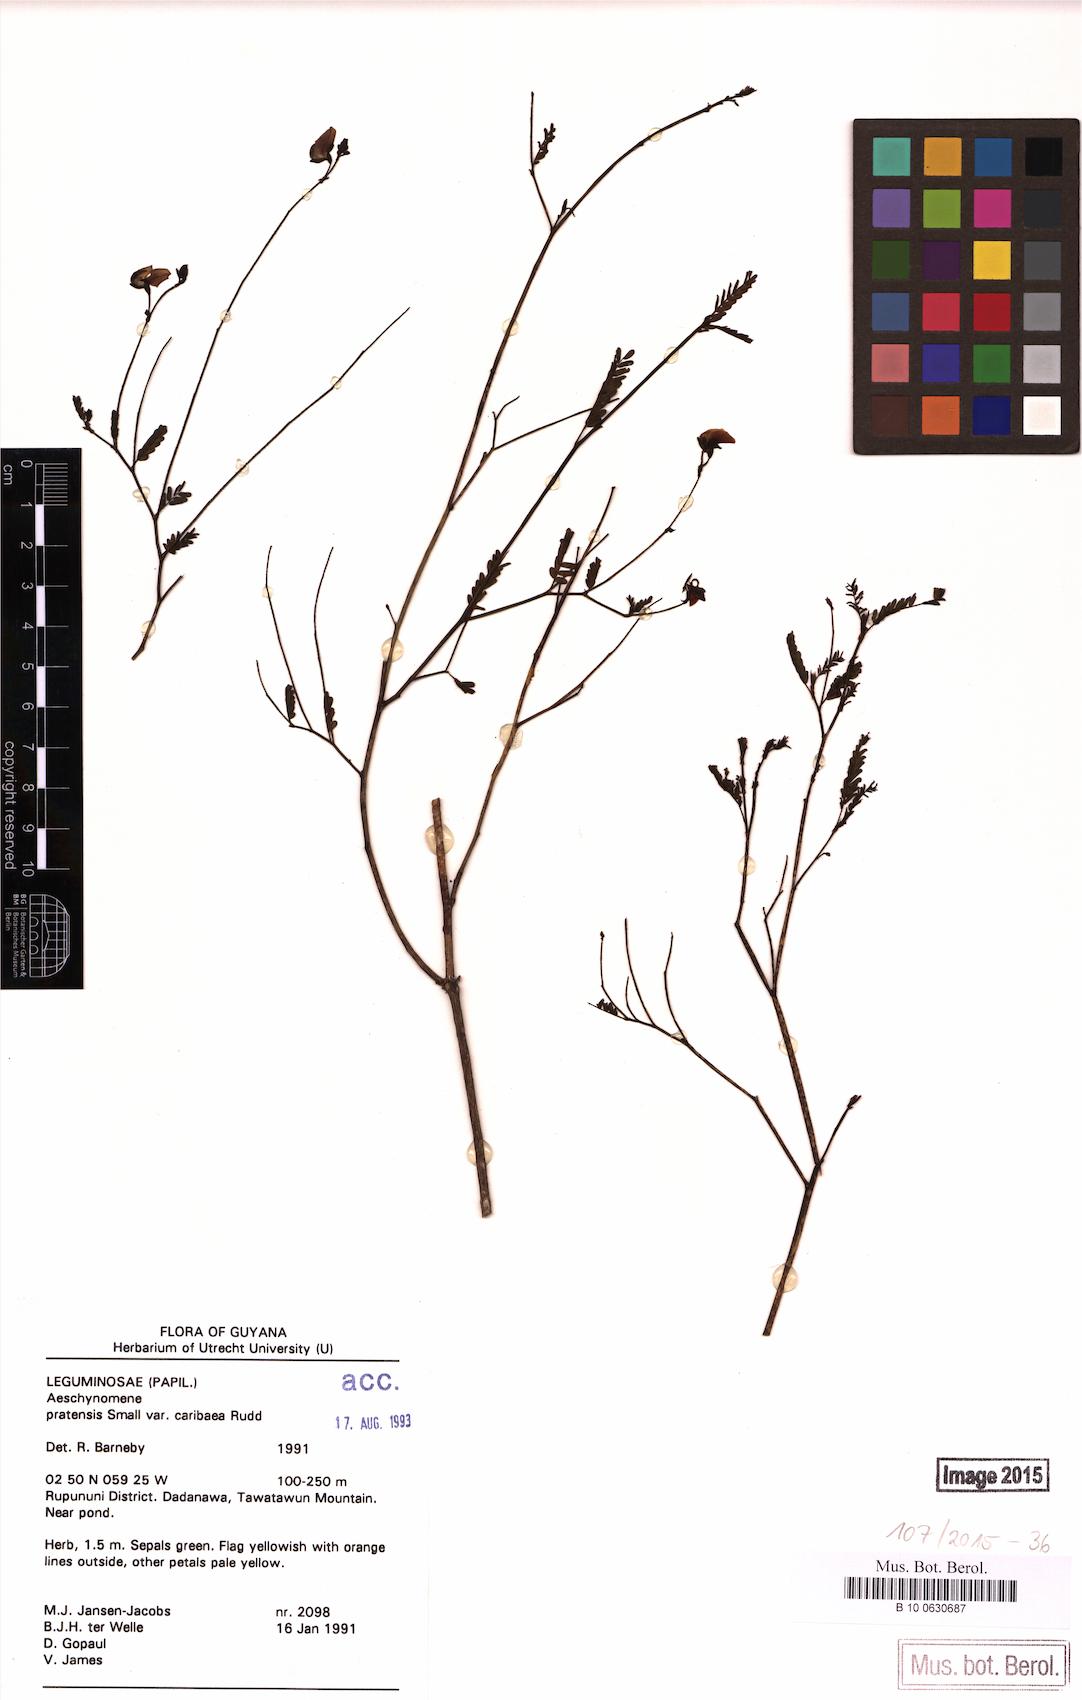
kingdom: Plantae
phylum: Tracheophyta
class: Magnoliopsida
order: Fabales
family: Fabaceae
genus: Aeschynomene
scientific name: Aeschynomene pratensis
